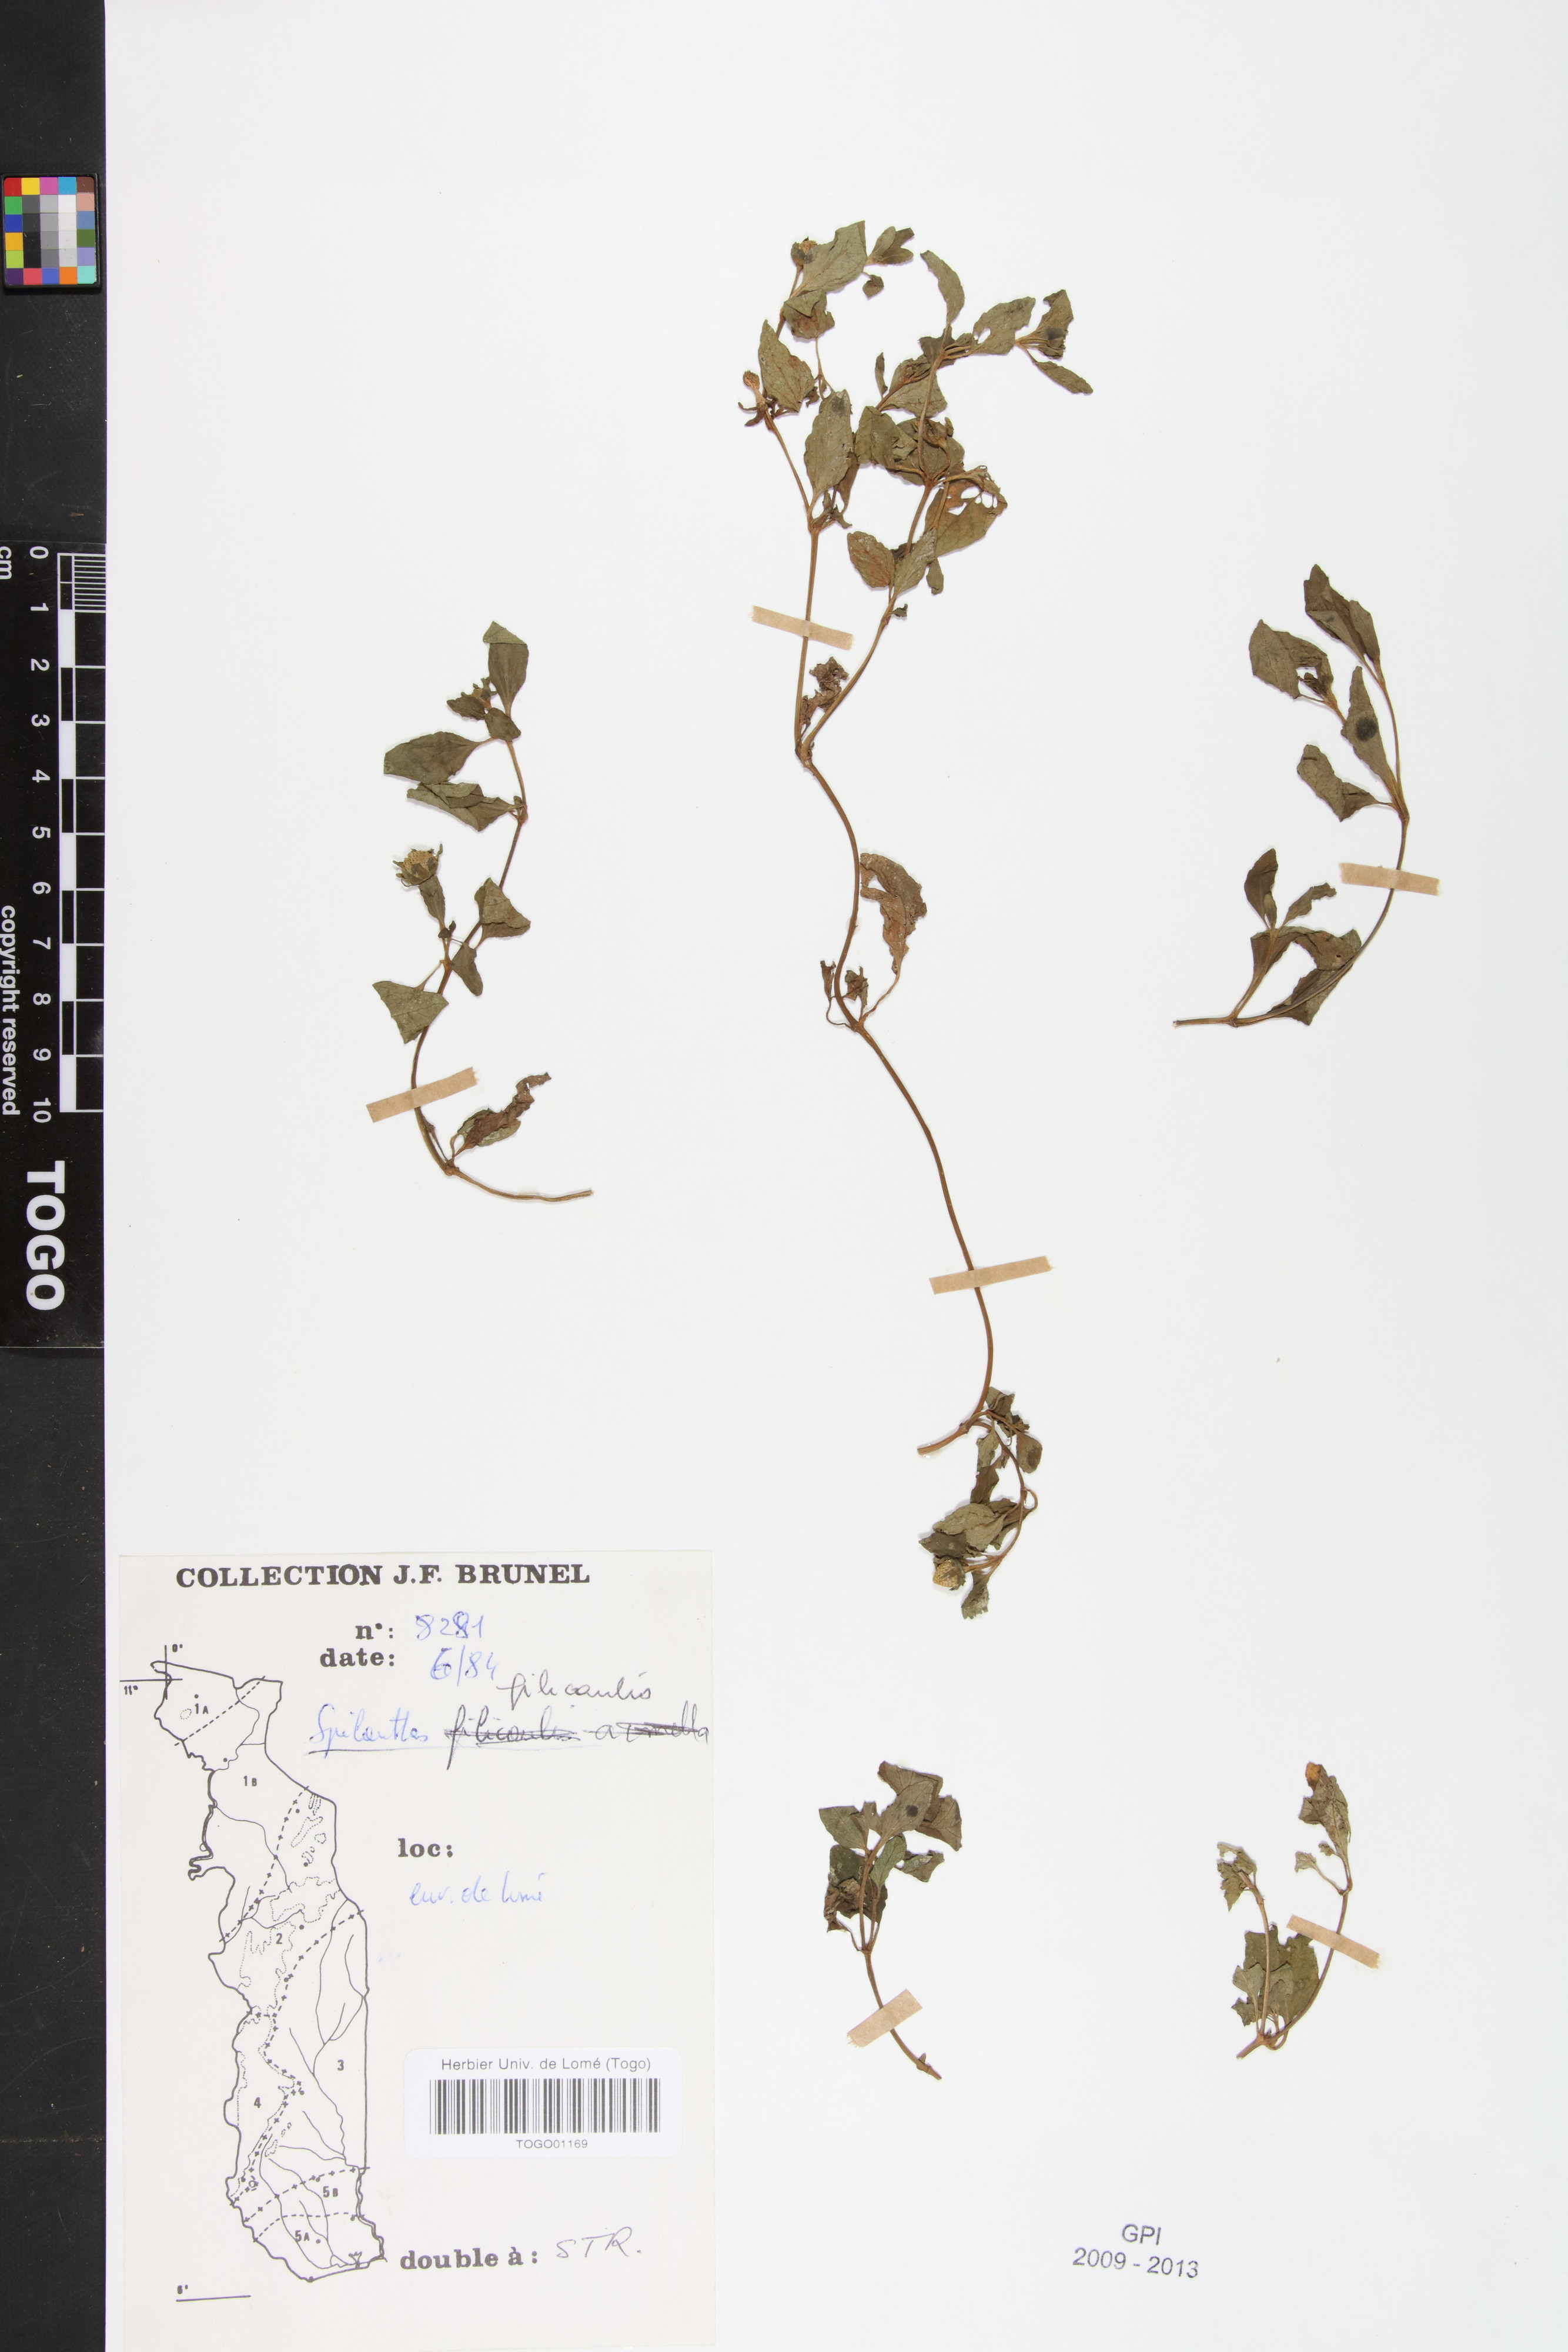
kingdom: Plantae
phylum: Tracheophyta
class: Magnoliopsida
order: Asterales
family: Asteraceae
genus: Acmella
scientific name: Acmella caulirhiza
